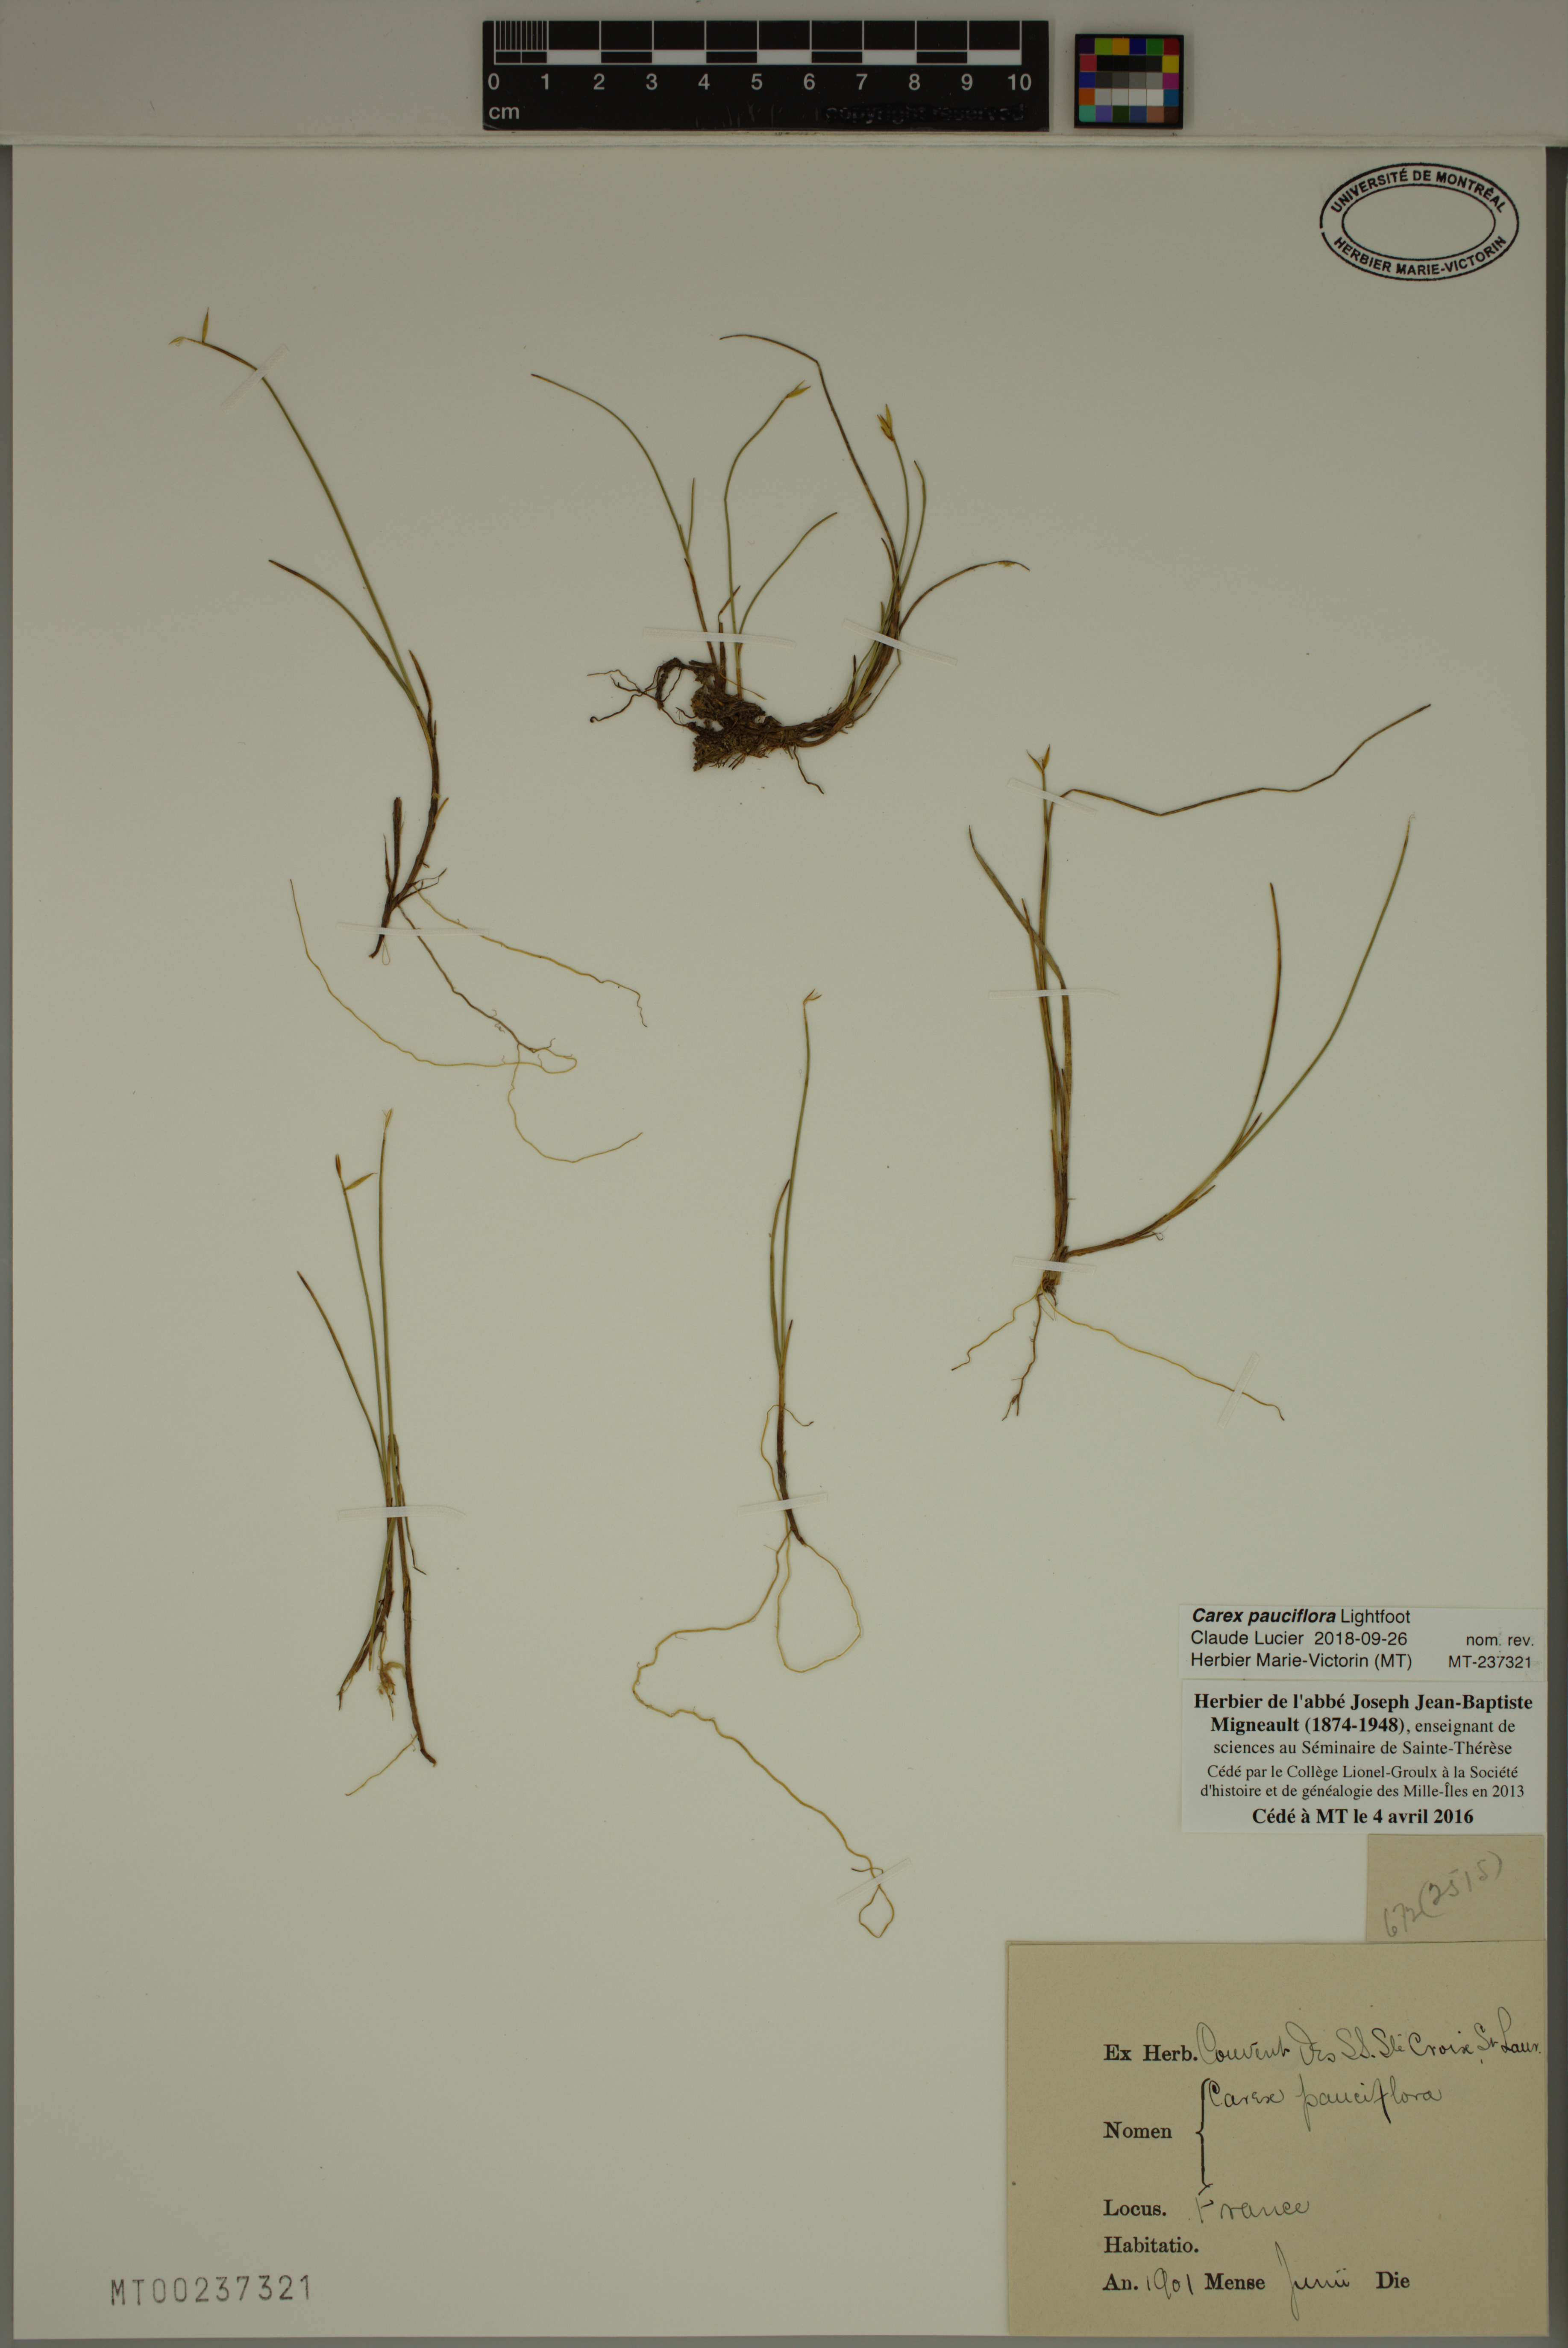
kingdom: Plantae
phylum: Tracheophyta
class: Liliopsida
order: Poales
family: Cyperaceae
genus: Carex
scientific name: Carex pauciflora
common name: Few-flowered sedge
